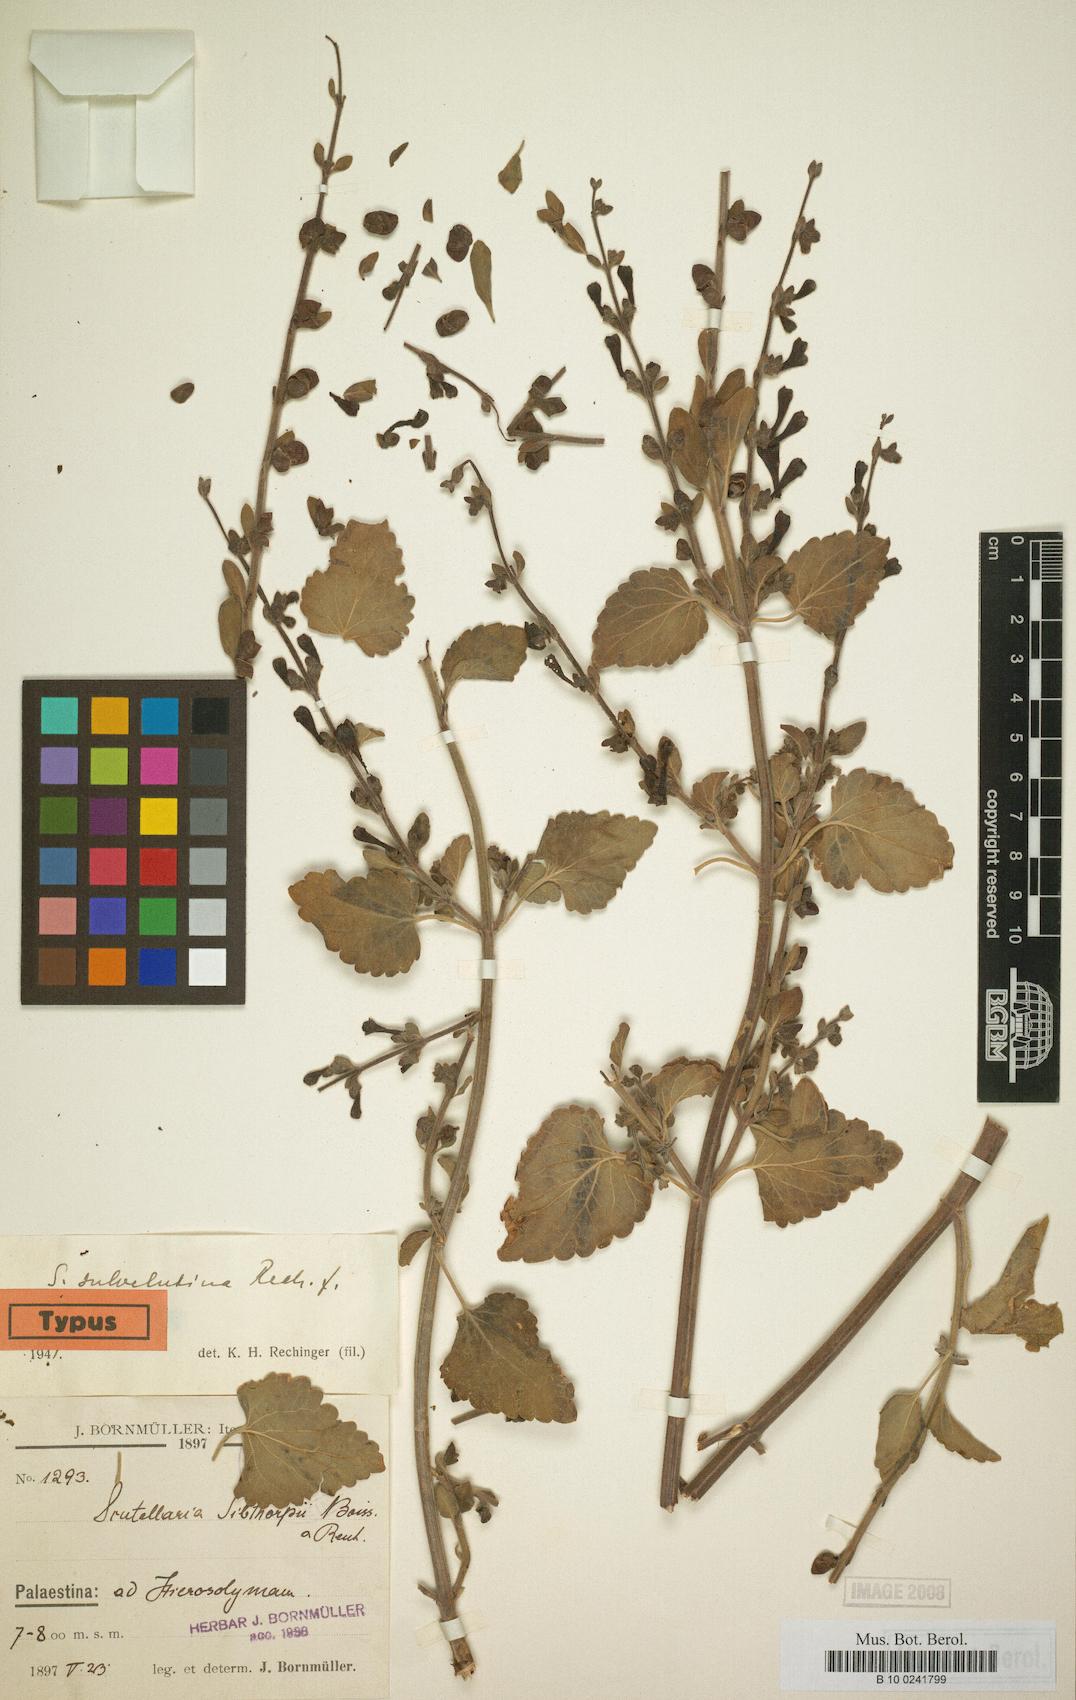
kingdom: Plantae
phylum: Tracheophyta
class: Magnoliopsida
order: Lamiales
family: Lamiaceae
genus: Scutellaria
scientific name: Scutellaria brevibracteata
